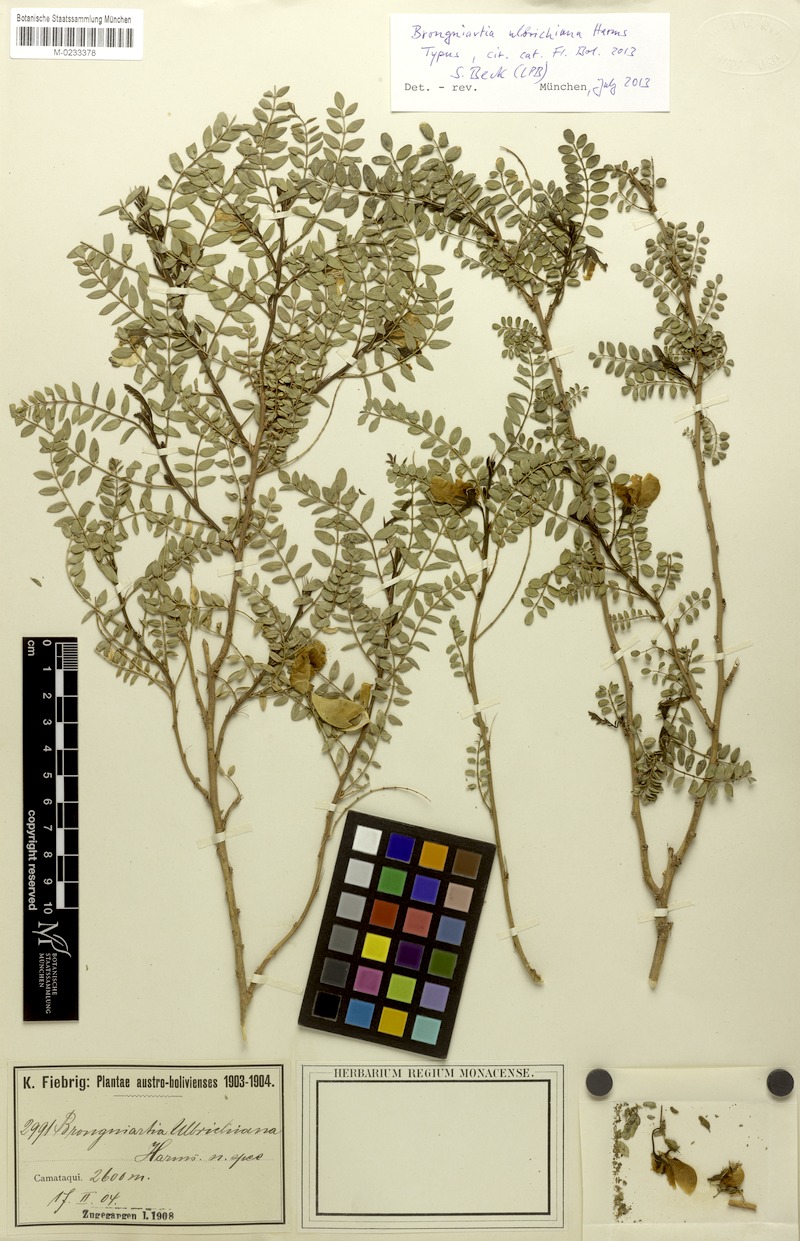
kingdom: Plantae
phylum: Tracheophyta
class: Magnoliopsida
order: Fabales
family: Fabaceae
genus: Brongniartia
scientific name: Brongniartia ulbrichiana
